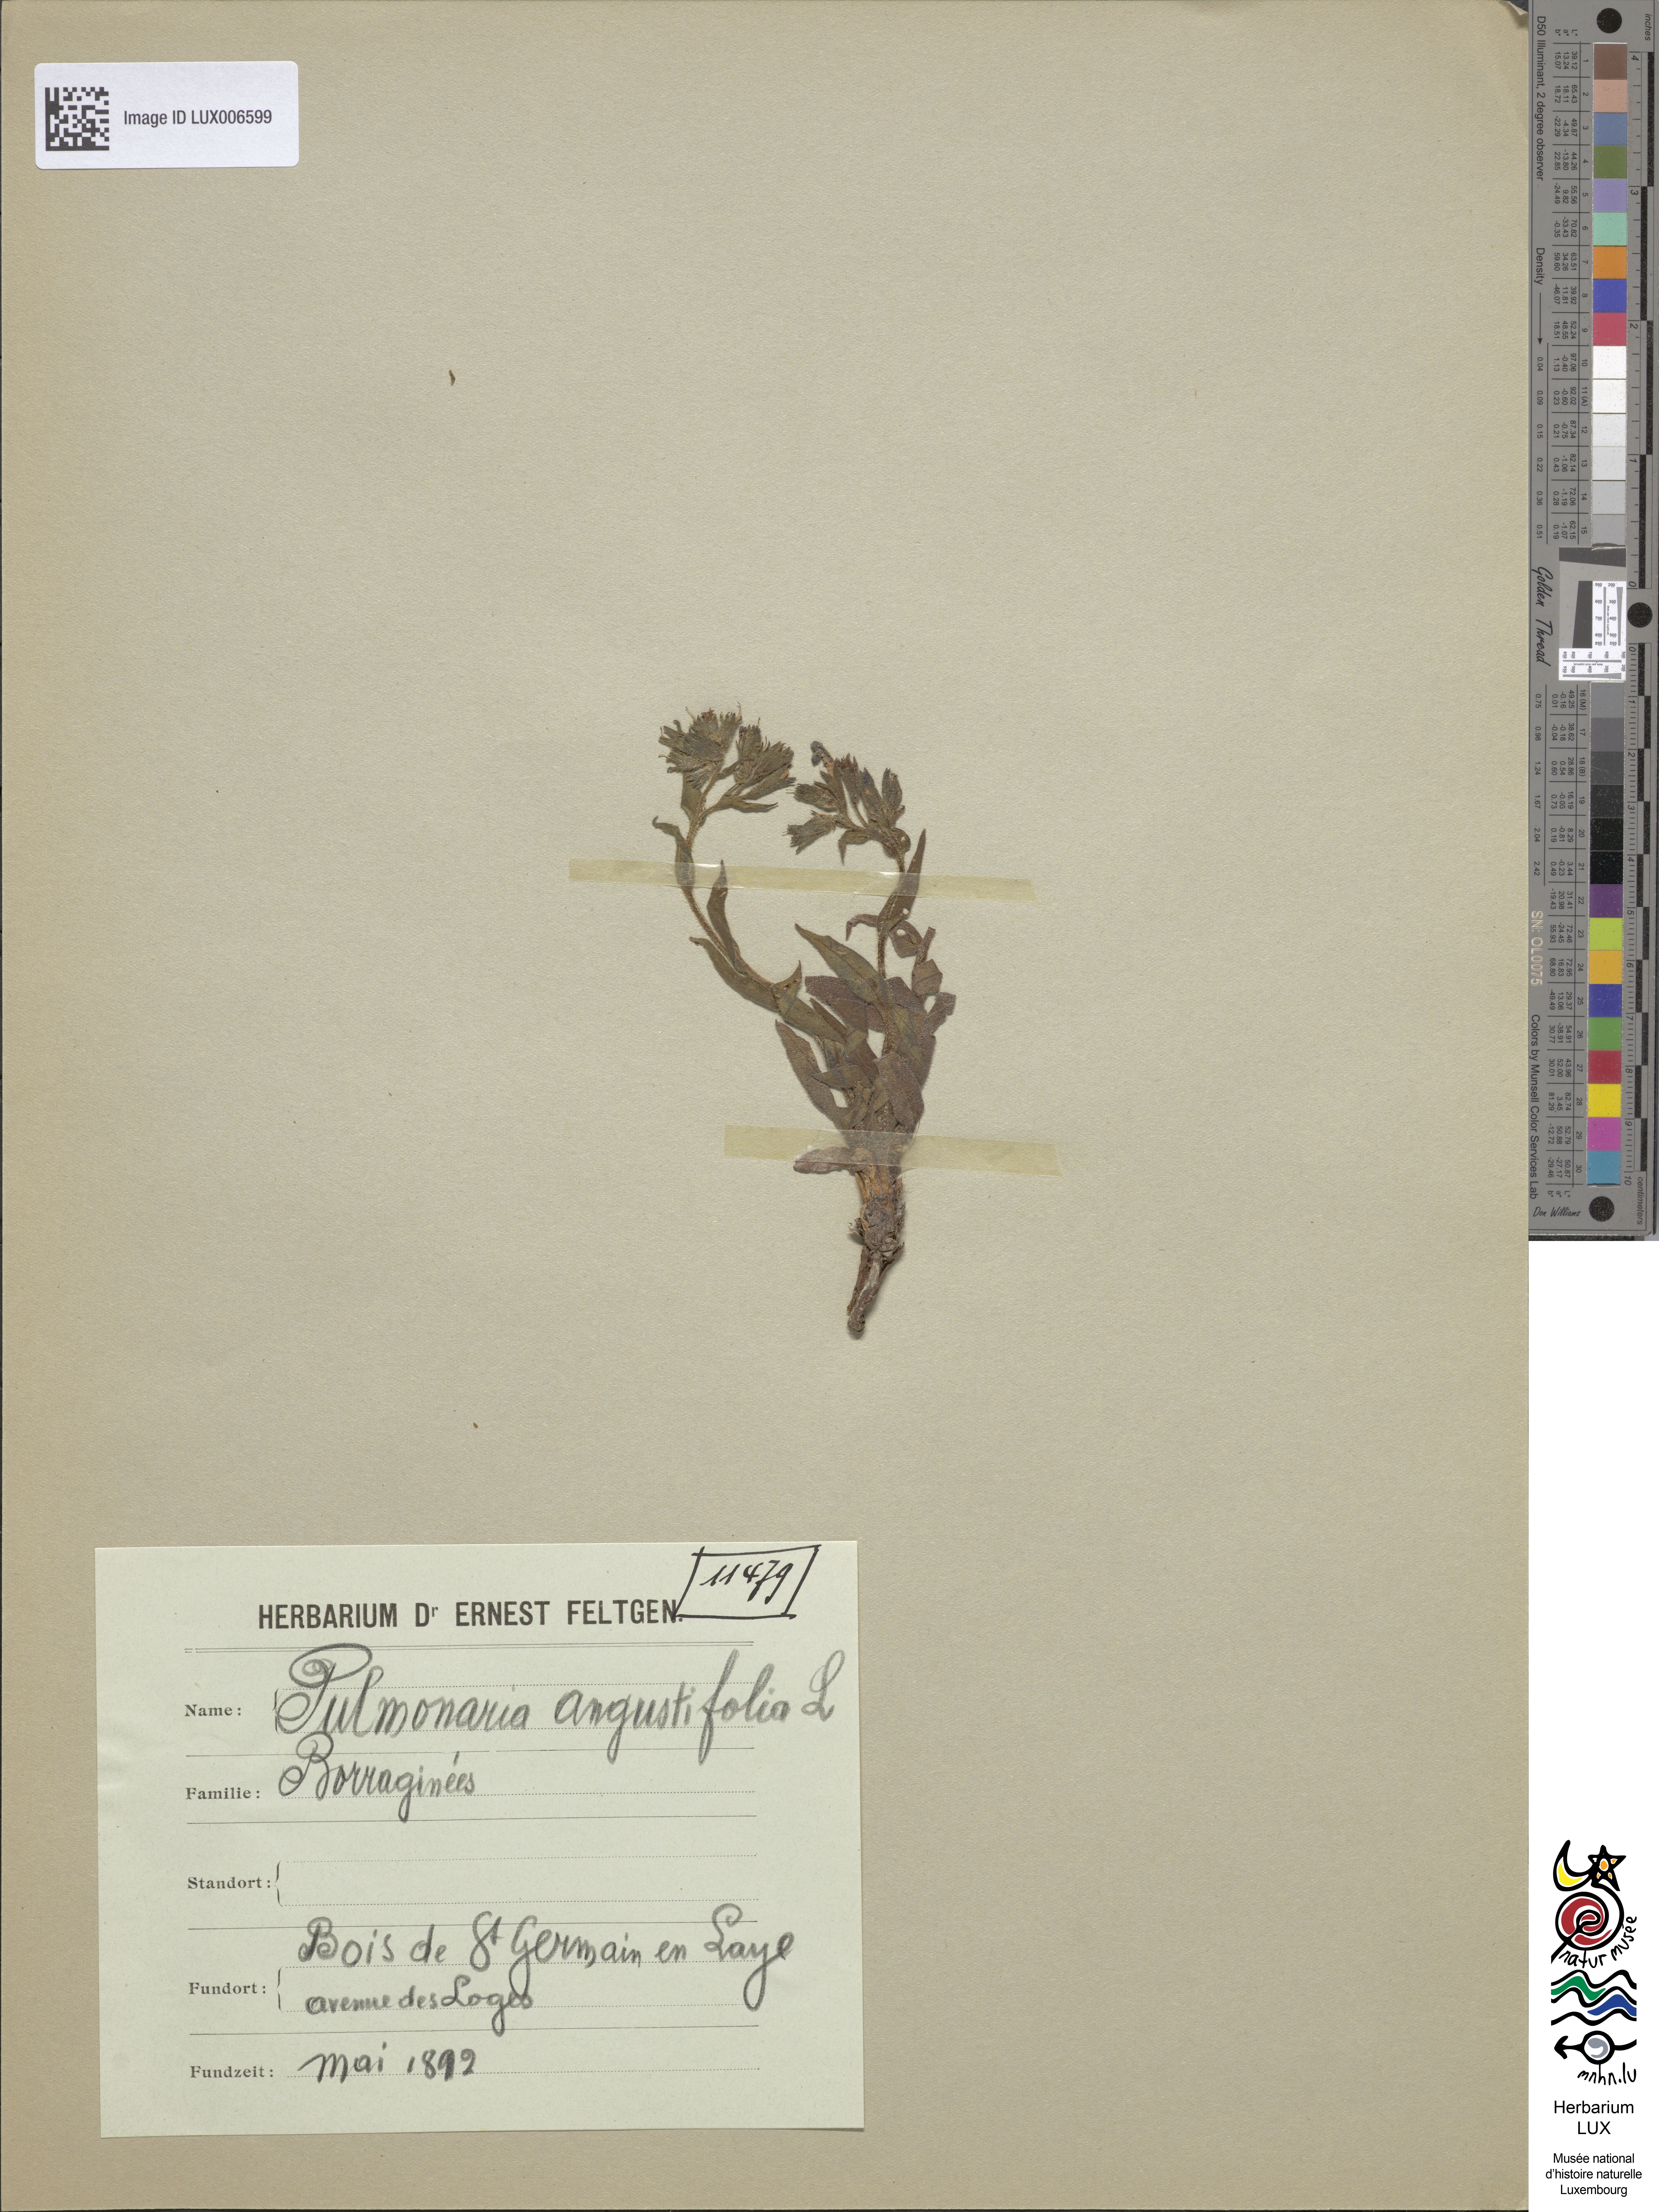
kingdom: Plantae
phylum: Tracheophyta
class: Magnoliopsida
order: Boraginales
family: Boraginaceae
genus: Pulmonaria
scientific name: Pulmonaria angustifolia
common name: Blue cowslip
